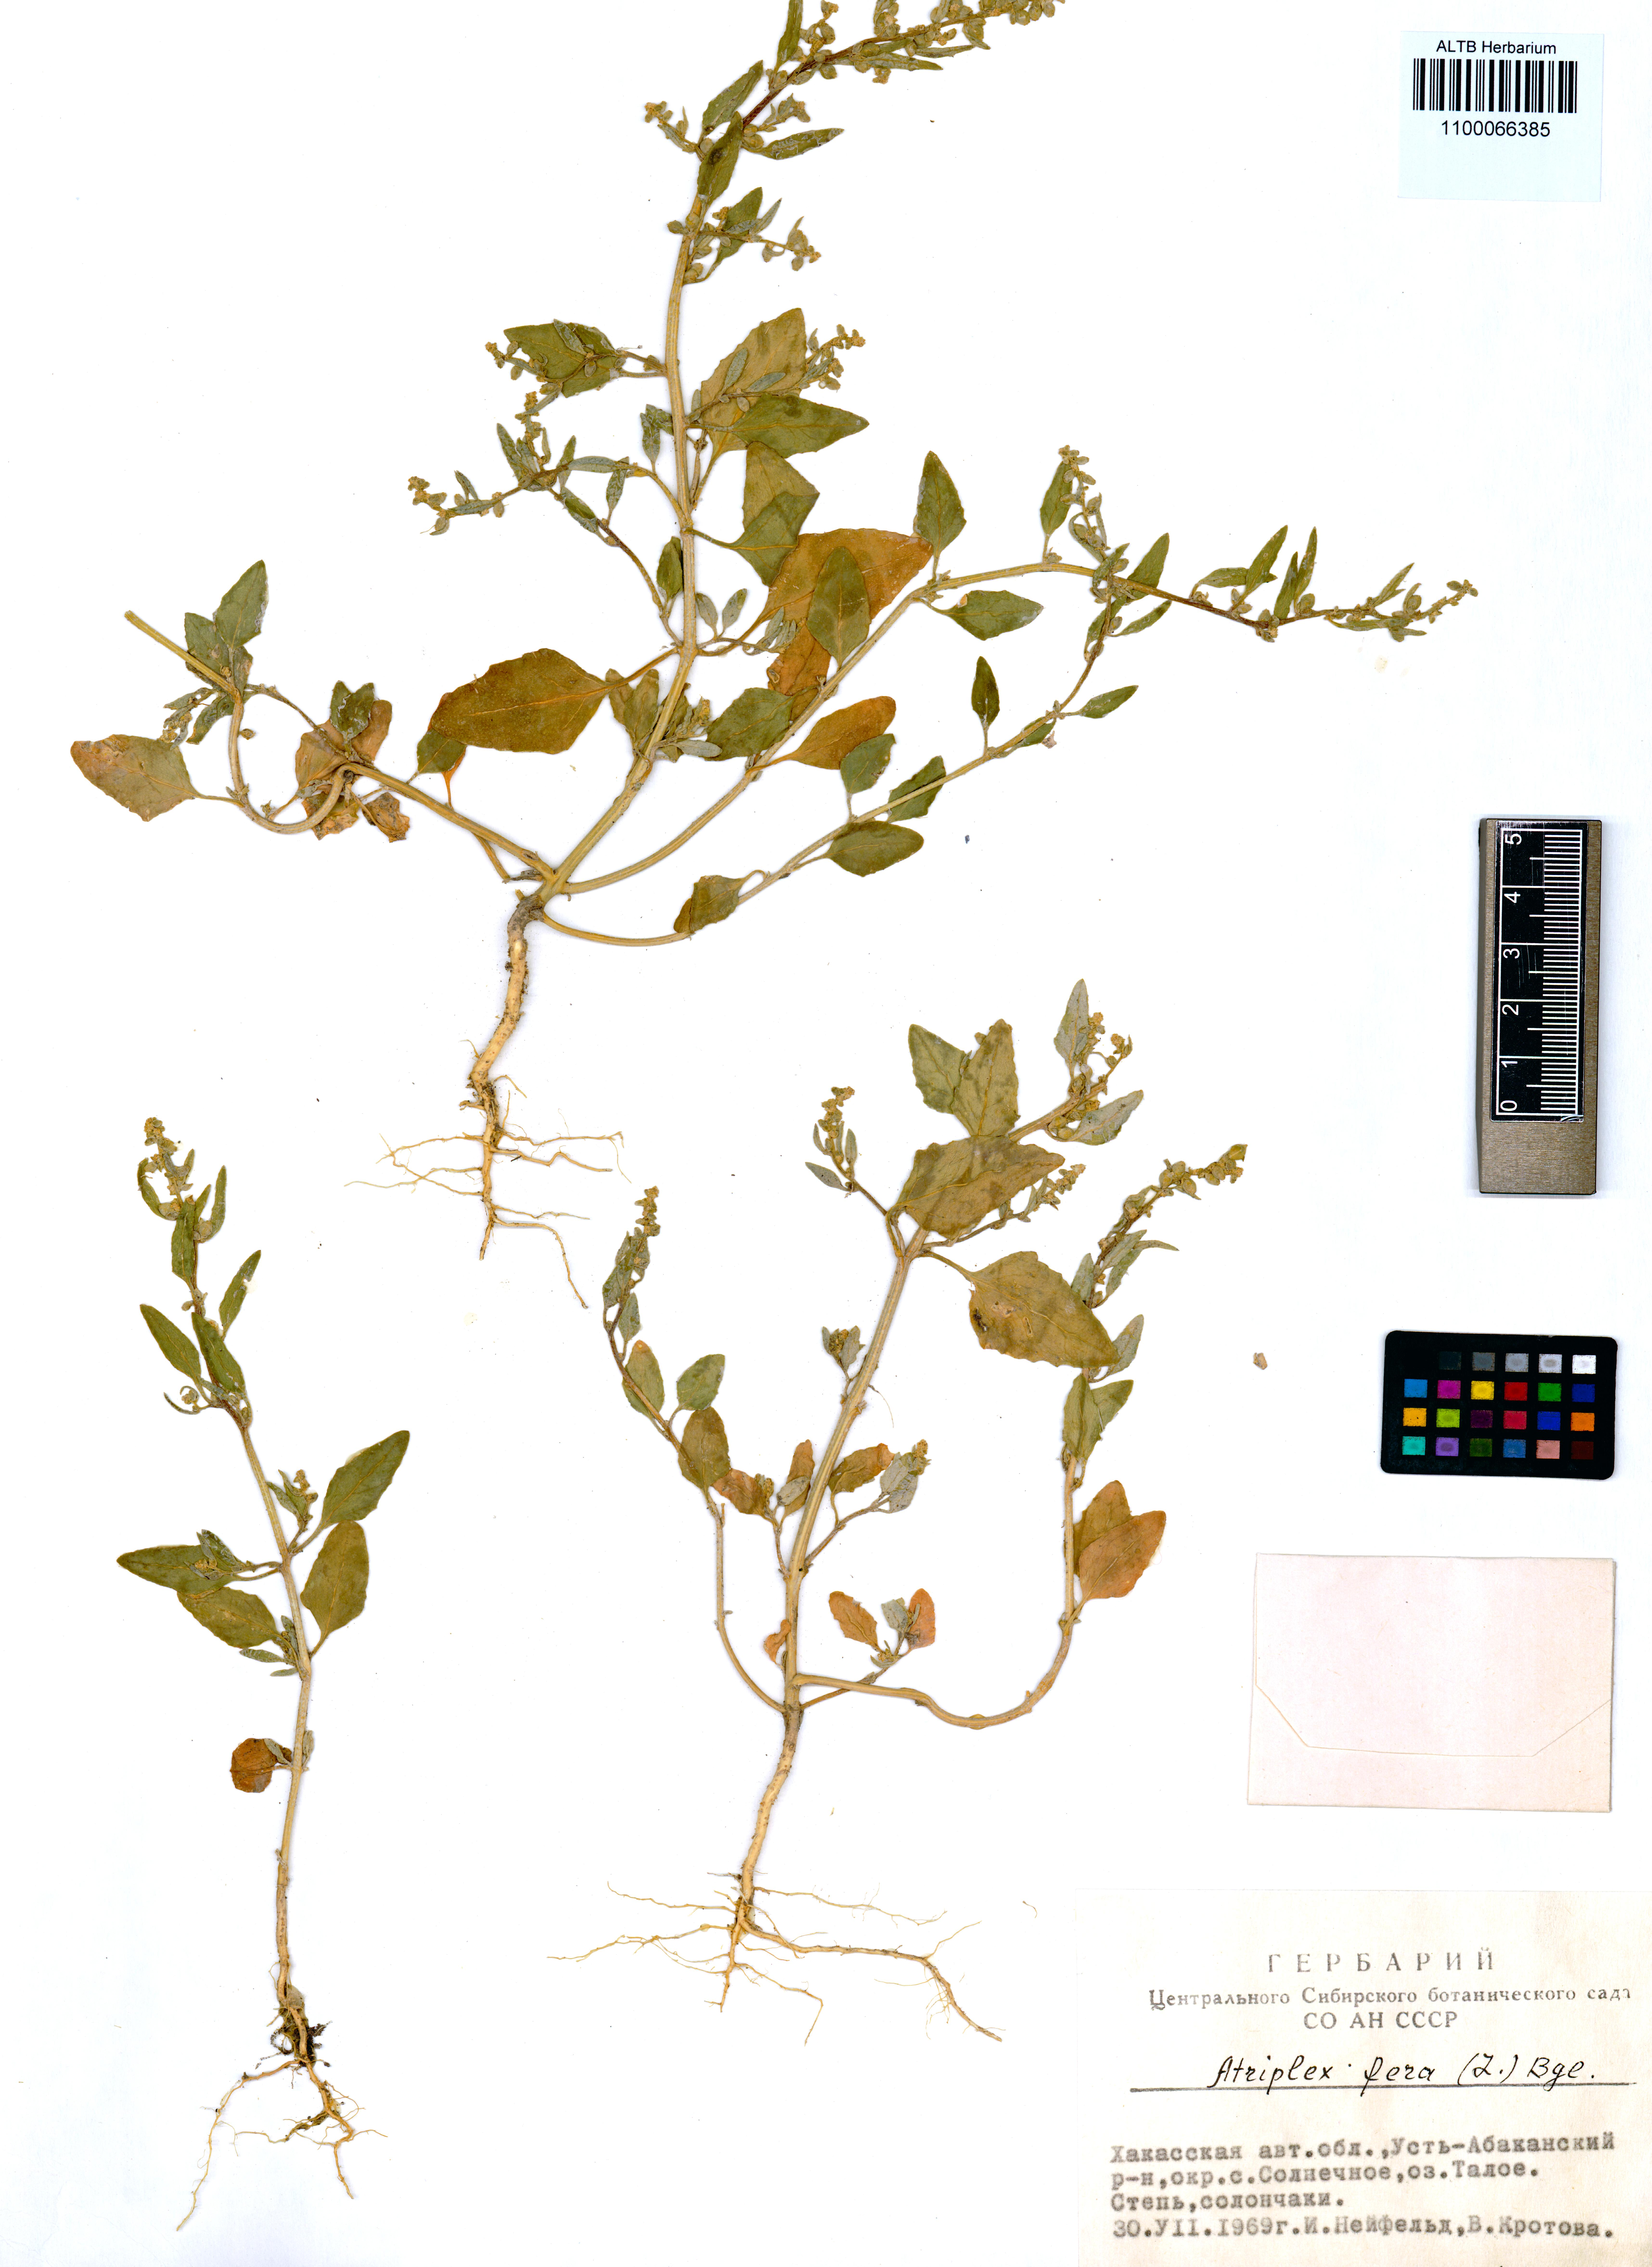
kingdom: Plantae
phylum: Tracheophyta
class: Magnoliopsida
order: Caryophyllales
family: Amaranthaceae
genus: Atriplex
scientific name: Atriplex fera
